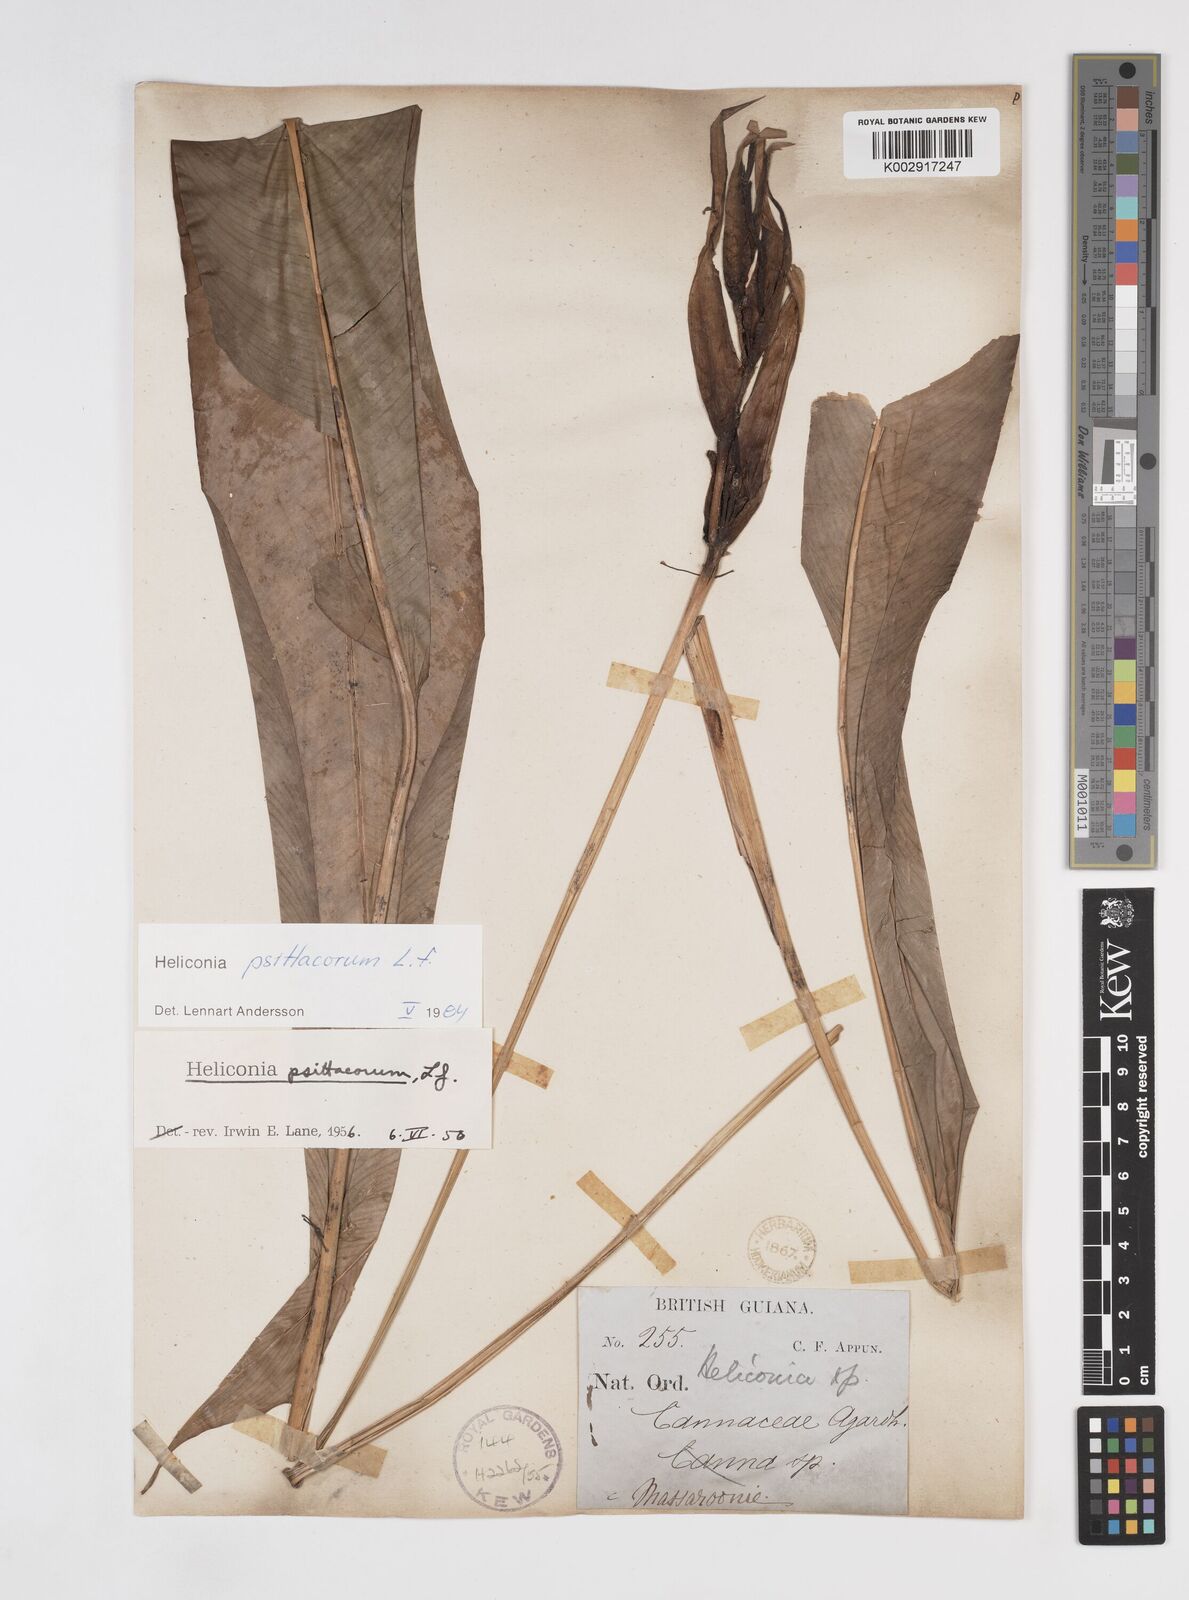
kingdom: Plantae
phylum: Tracheophyta
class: Liliopsida
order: Zingiberales
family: Heliconiaceae
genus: Heliconia
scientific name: Heliconia psittacorum
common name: Parrot's-flower
